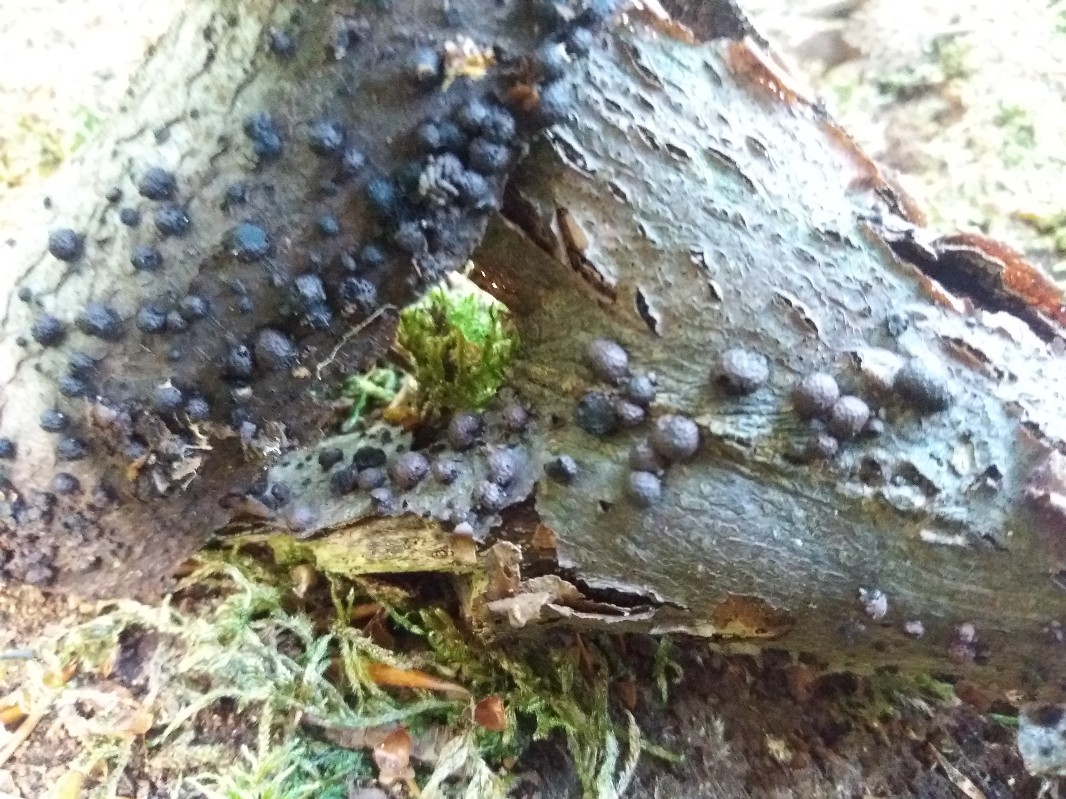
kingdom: Fungi
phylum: Ascomycota
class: Sordariomycetes
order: Xylariales
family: Hypoxylaceae
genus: Hypoxylon
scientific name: Hypoxylon fragiforme
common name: kuljordbær
